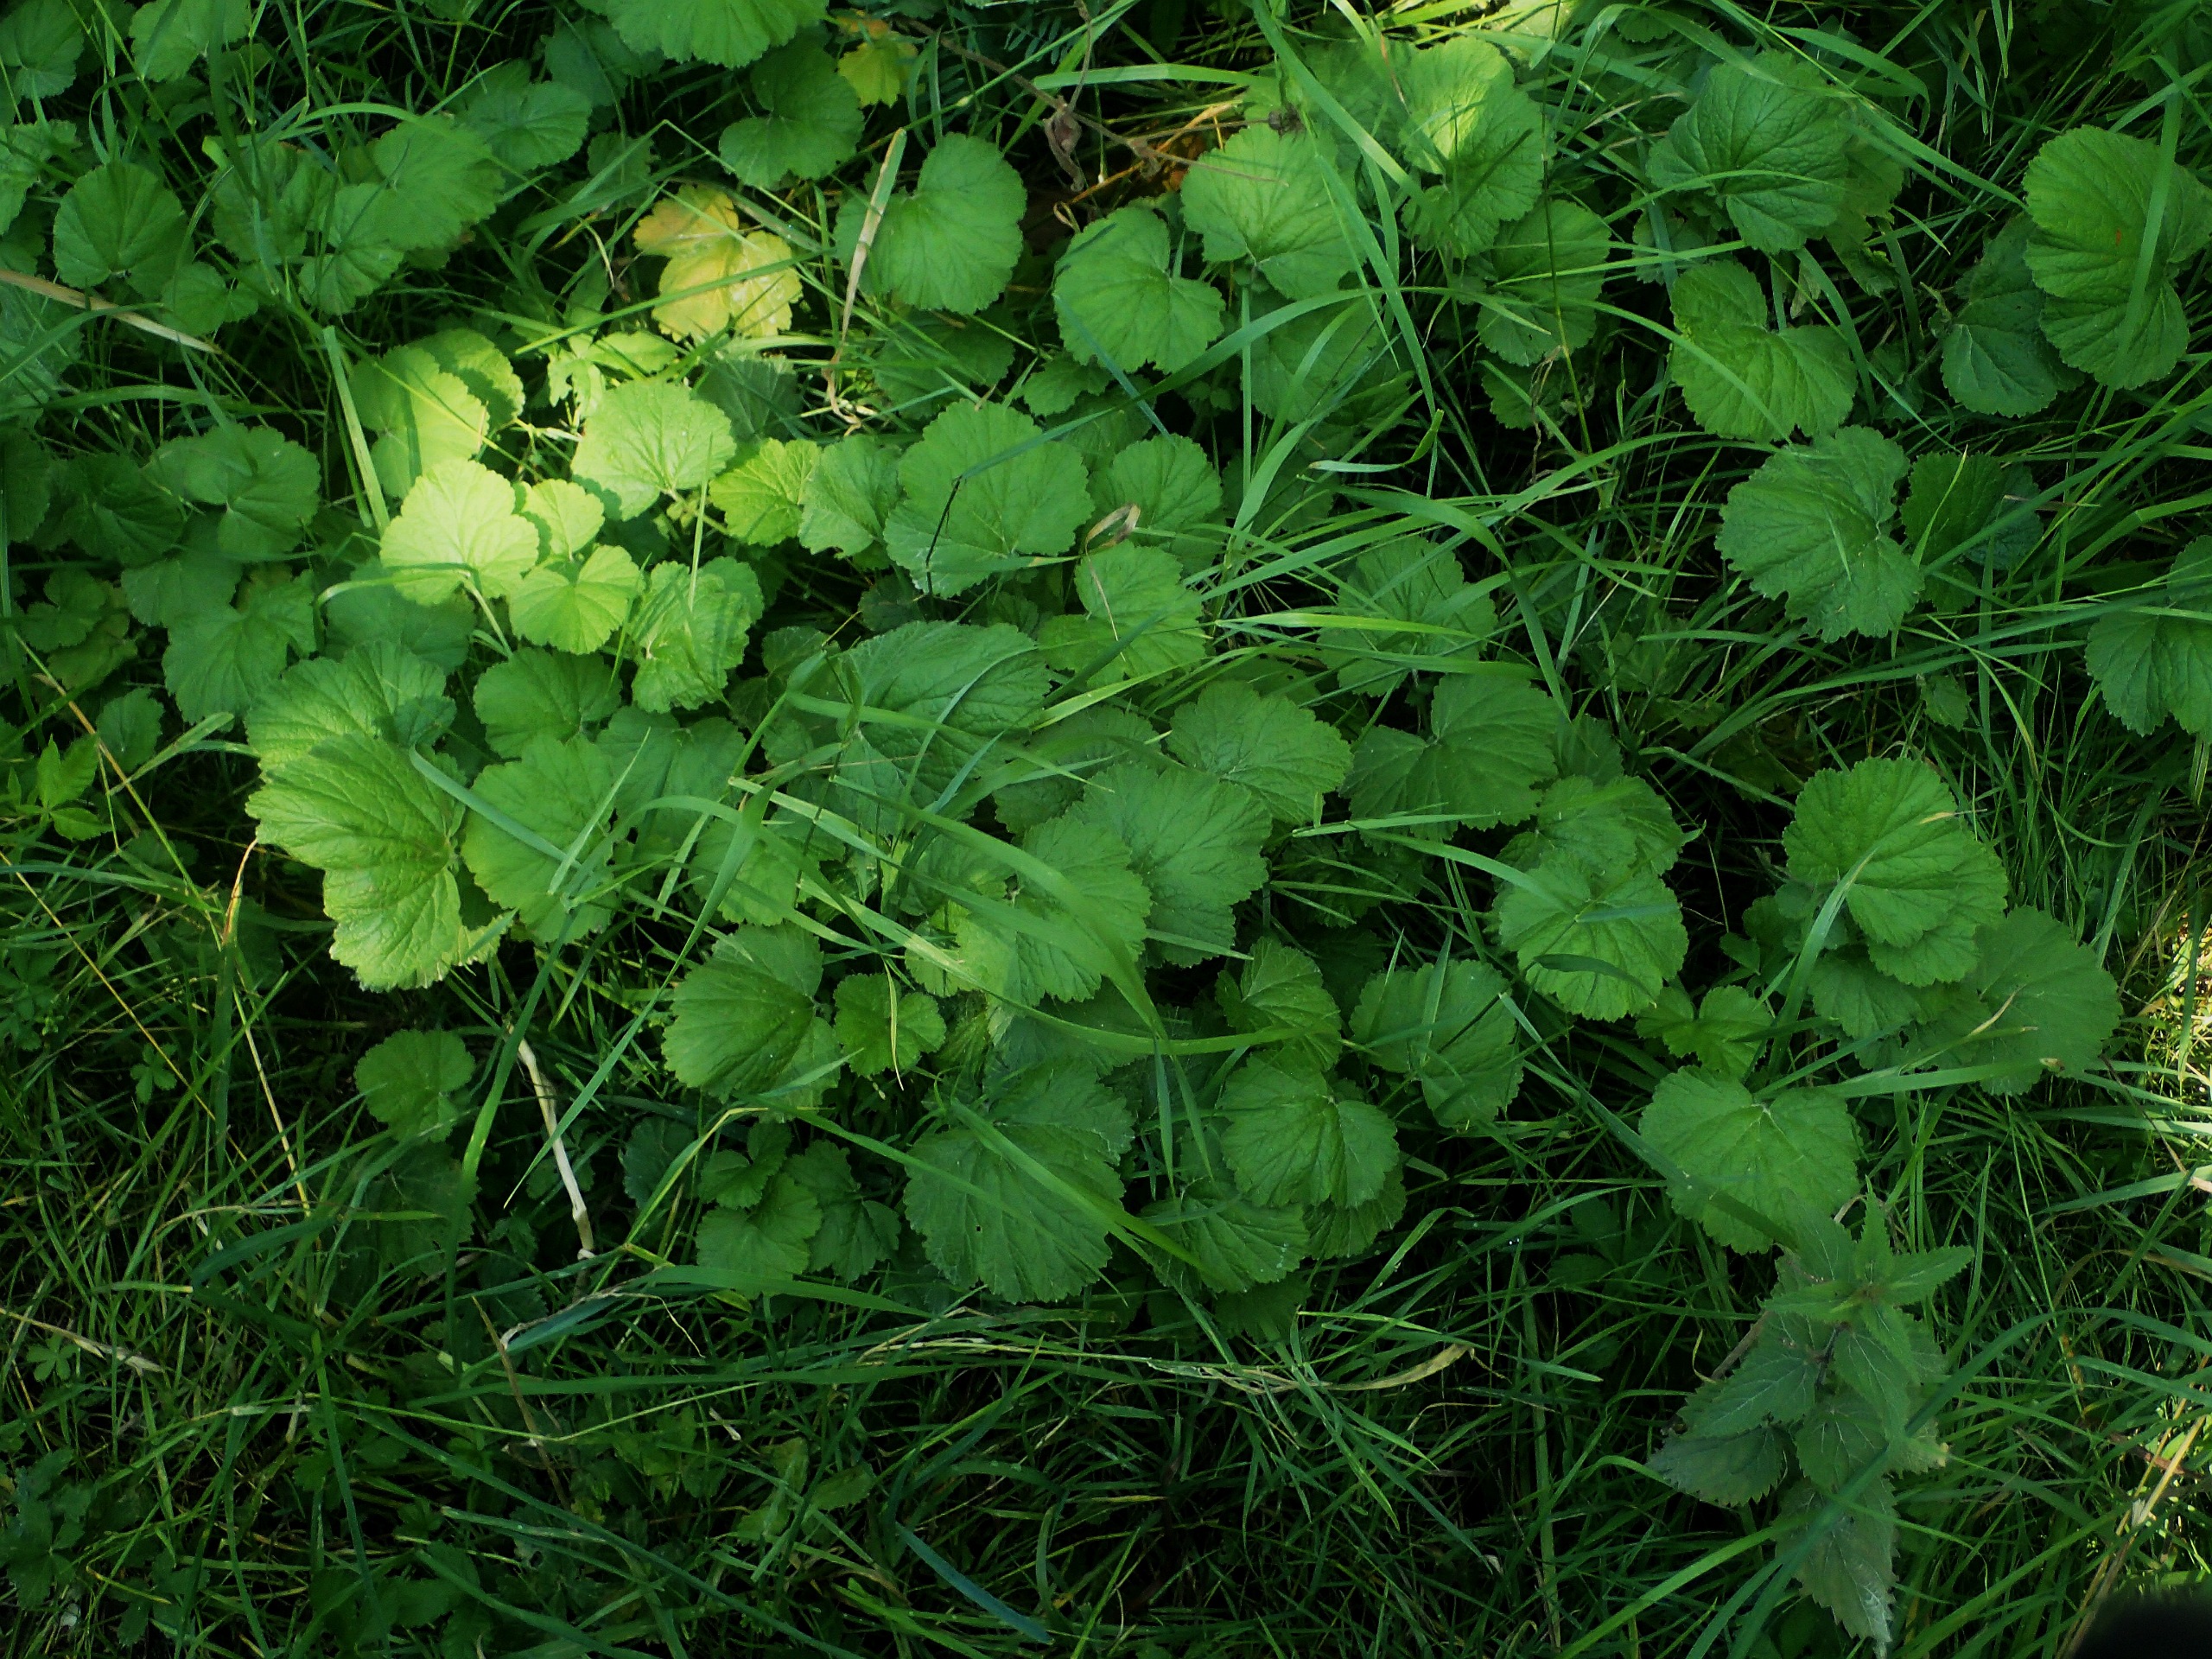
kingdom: Plantae
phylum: Tracheophyta
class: Magnoliopsida
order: Rosales
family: Rosaceae
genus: Geum
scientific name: Geum rivale
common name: Eng-nellikerod
